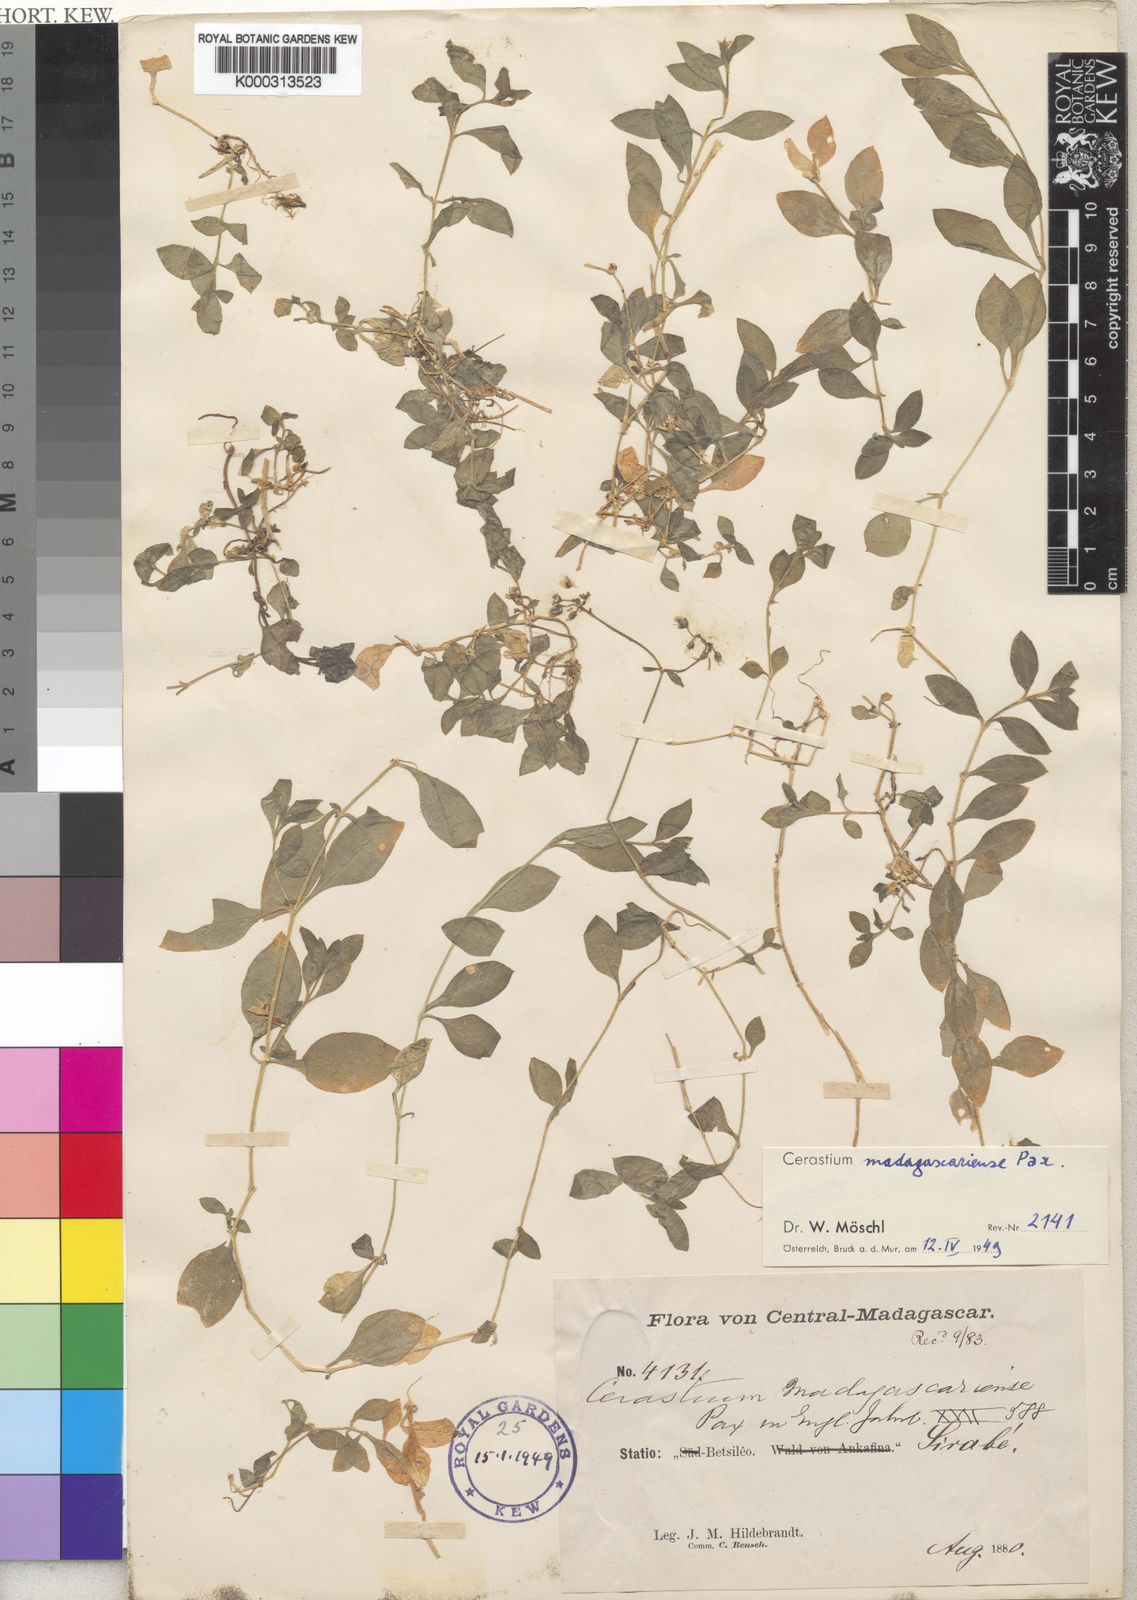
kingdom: Plantae
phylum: Tracheophyta
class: Magnoliopsida
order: Caryophyllales
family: Caryophyllaceae
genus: Cerastium
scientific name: Cerastium lanceolatum
